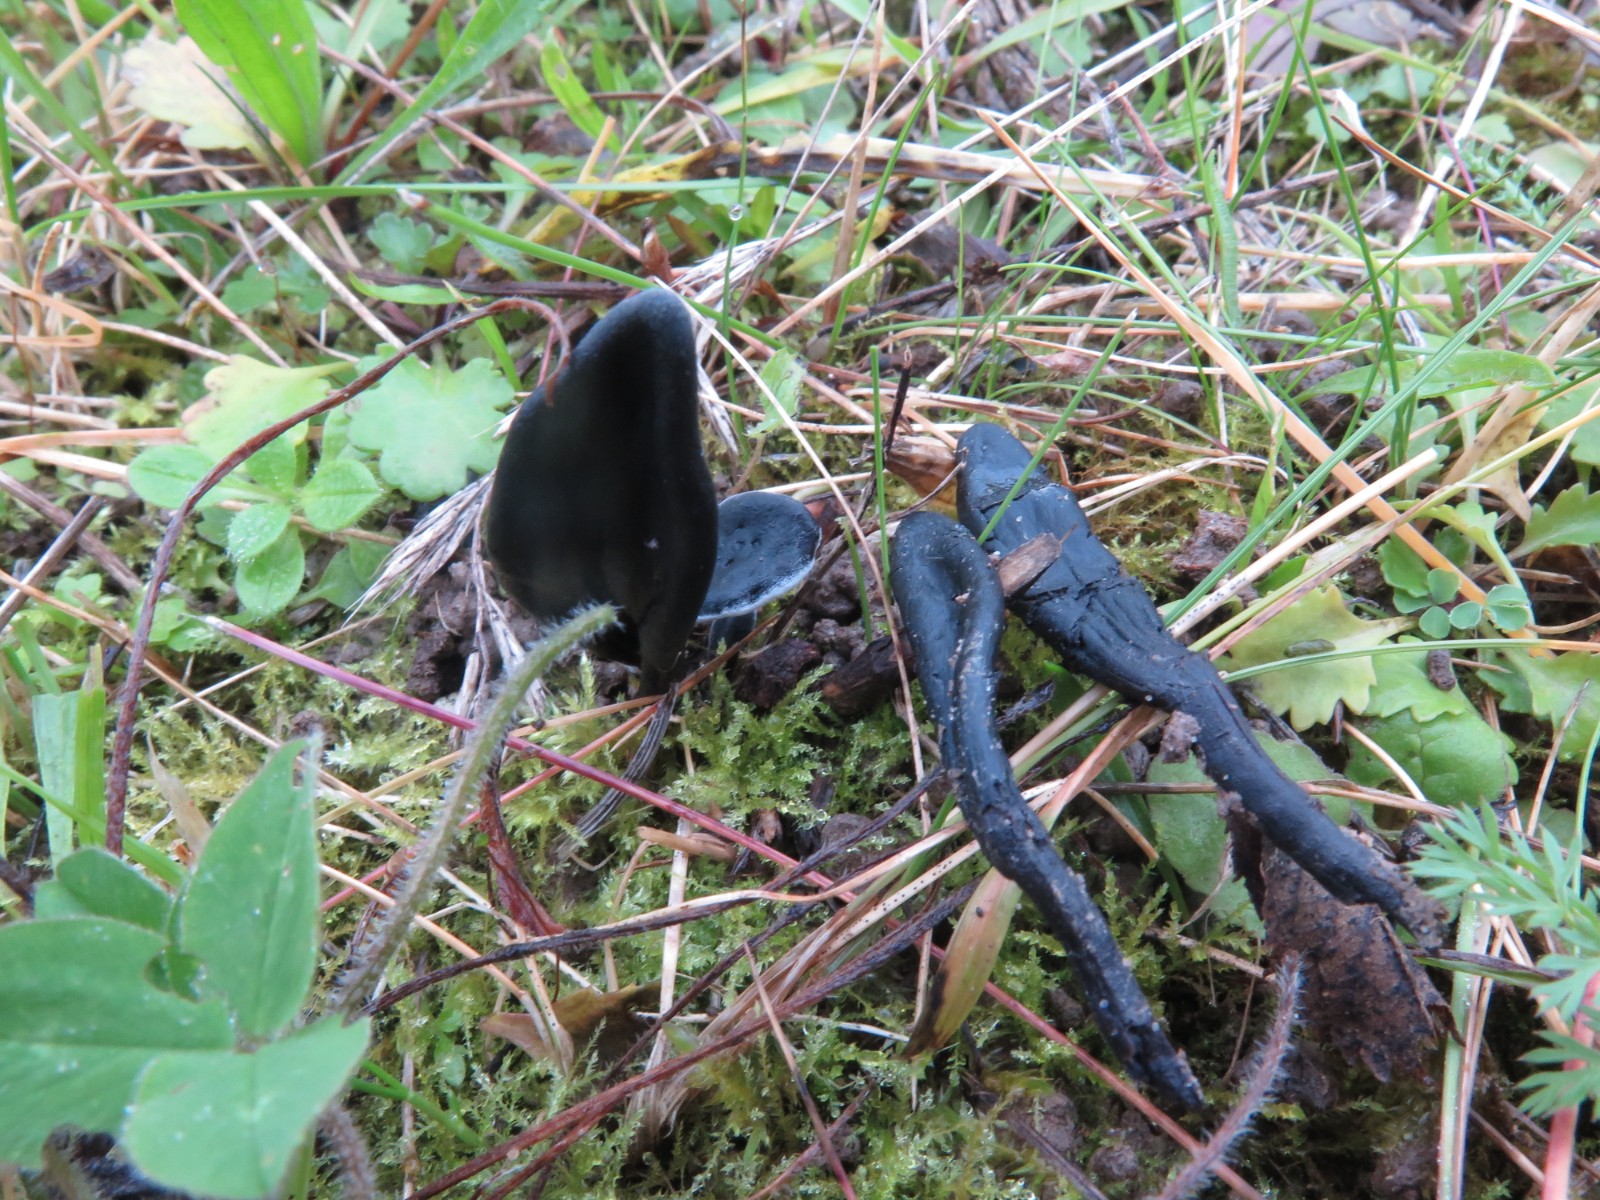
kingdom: Fungi
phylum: Ascomycota
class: Geoglossomycetes
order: Geoglossales
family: Geoglossaceae
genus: Geoglossum
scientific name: Geoglossum cookeianum
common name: bred jordtunge
